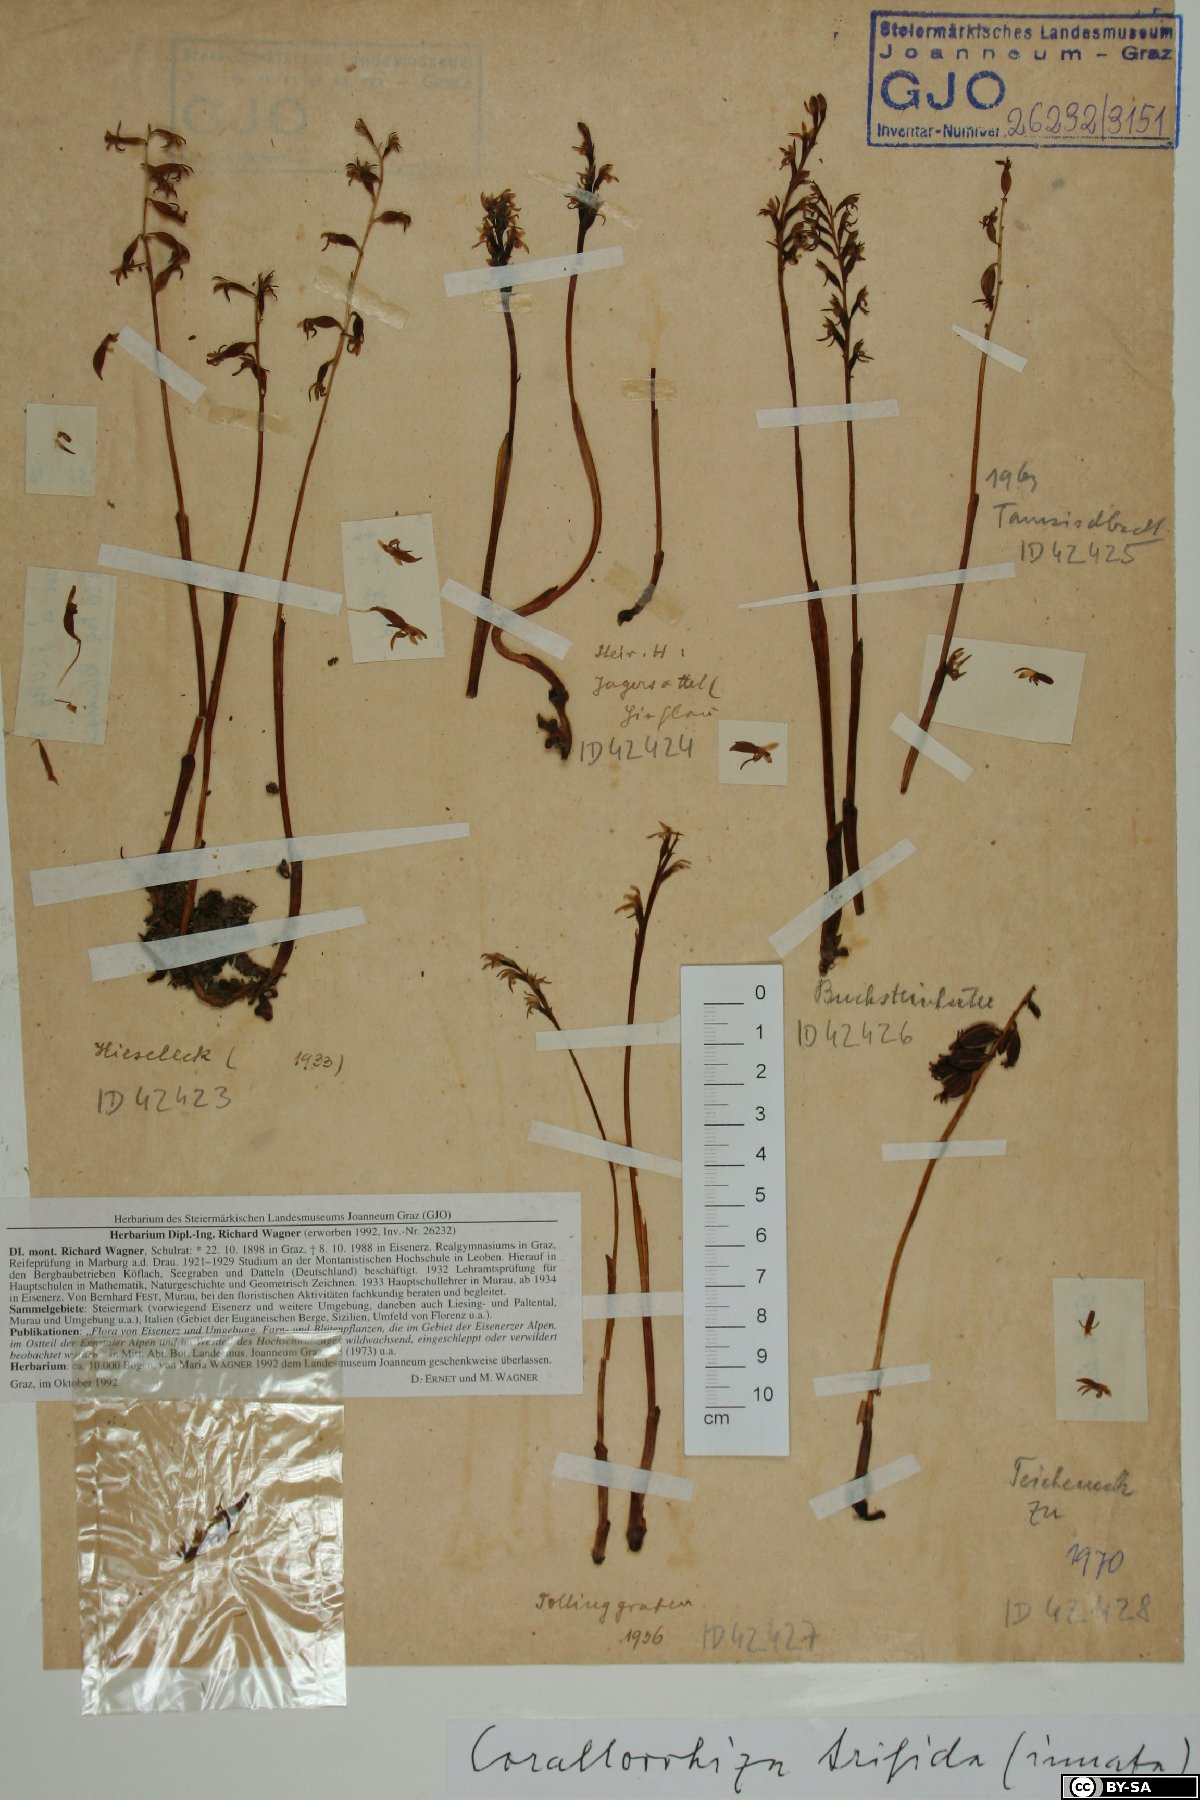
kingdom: Plantae
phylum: Tracheophyta
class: Liliopsida
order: Asparagales
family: Orchidaceae
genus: Corallorhiza
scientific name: Corallorhiza trifida
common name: Yellow coralroot
